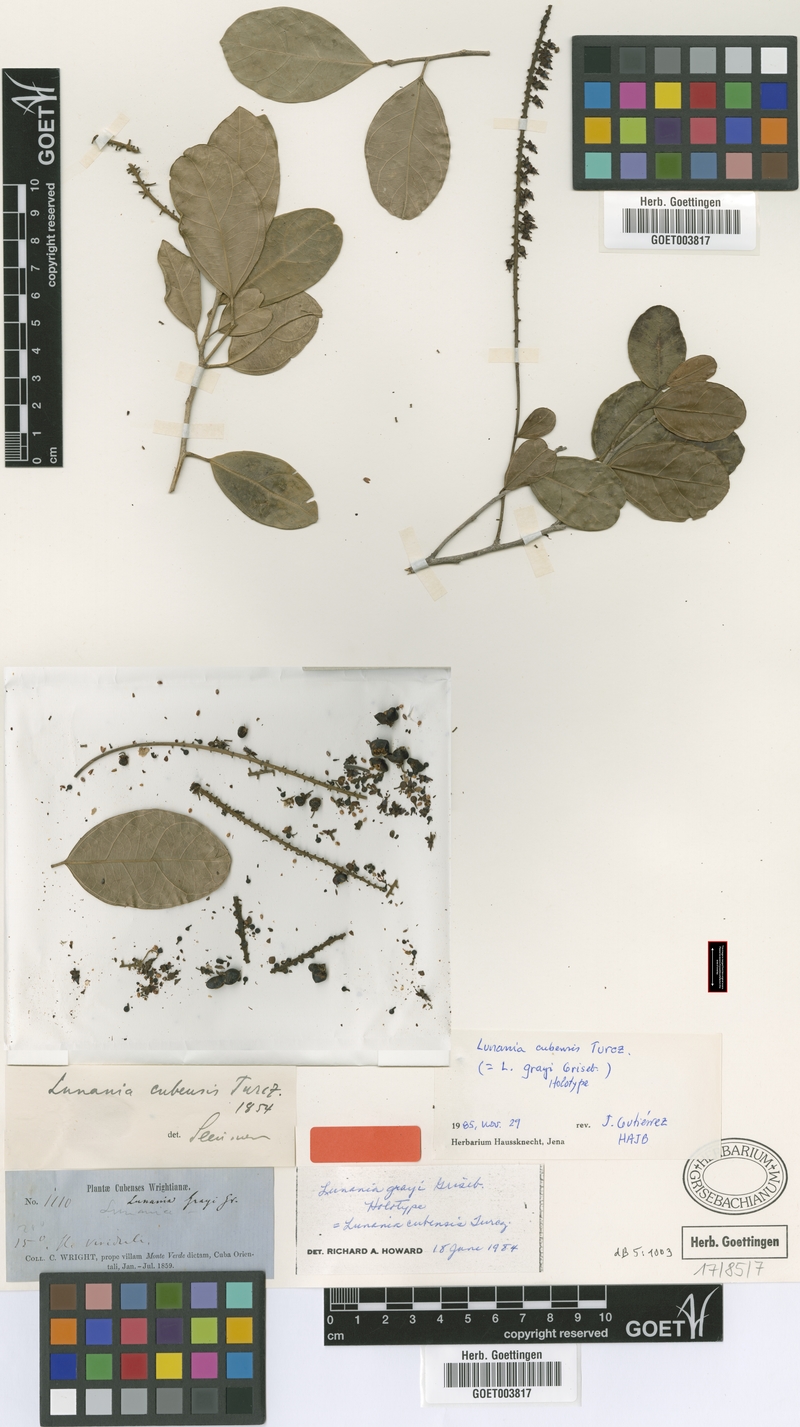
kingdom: Plantae
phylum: Tracheophyta
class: Magnoliopsida
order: Malpighiales
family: Salicaceae
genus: Lunania
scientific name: Lunania cubensis
